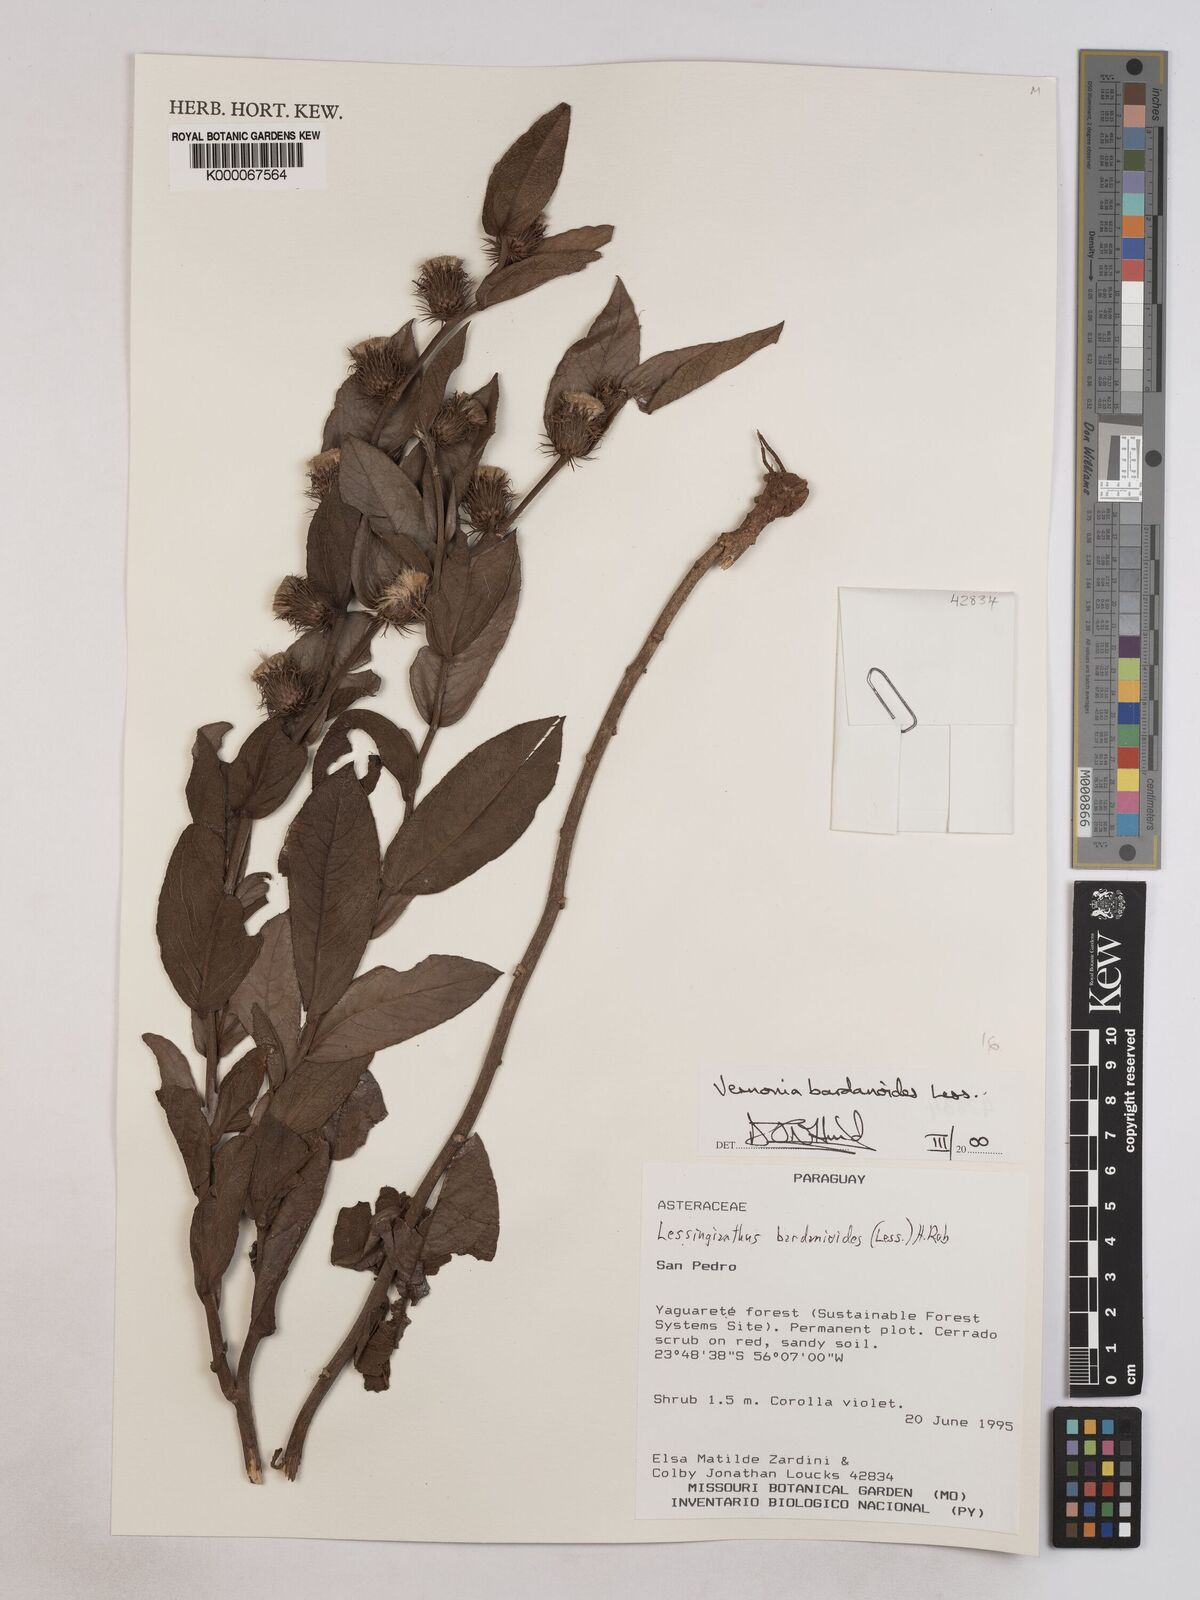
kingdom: Plantae
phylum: Tracheophyta
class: Magnoliopsida
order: Asterales
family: Asteraceae
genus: Lessingianthus
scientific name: Lessingianthus bardanioides
